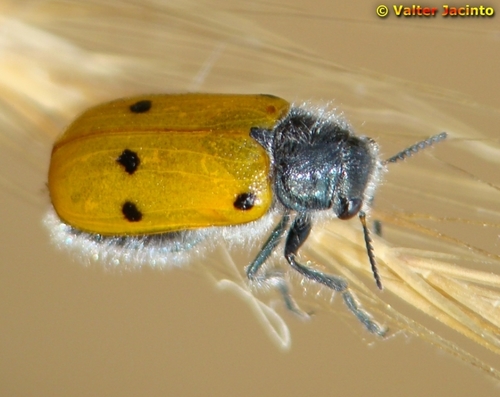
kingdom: Animalia
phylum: Arthropoda
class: Insecta
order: Coleoptera
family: Chrysomelidae
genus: Lachnaia
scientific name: Lachnaia hirta
